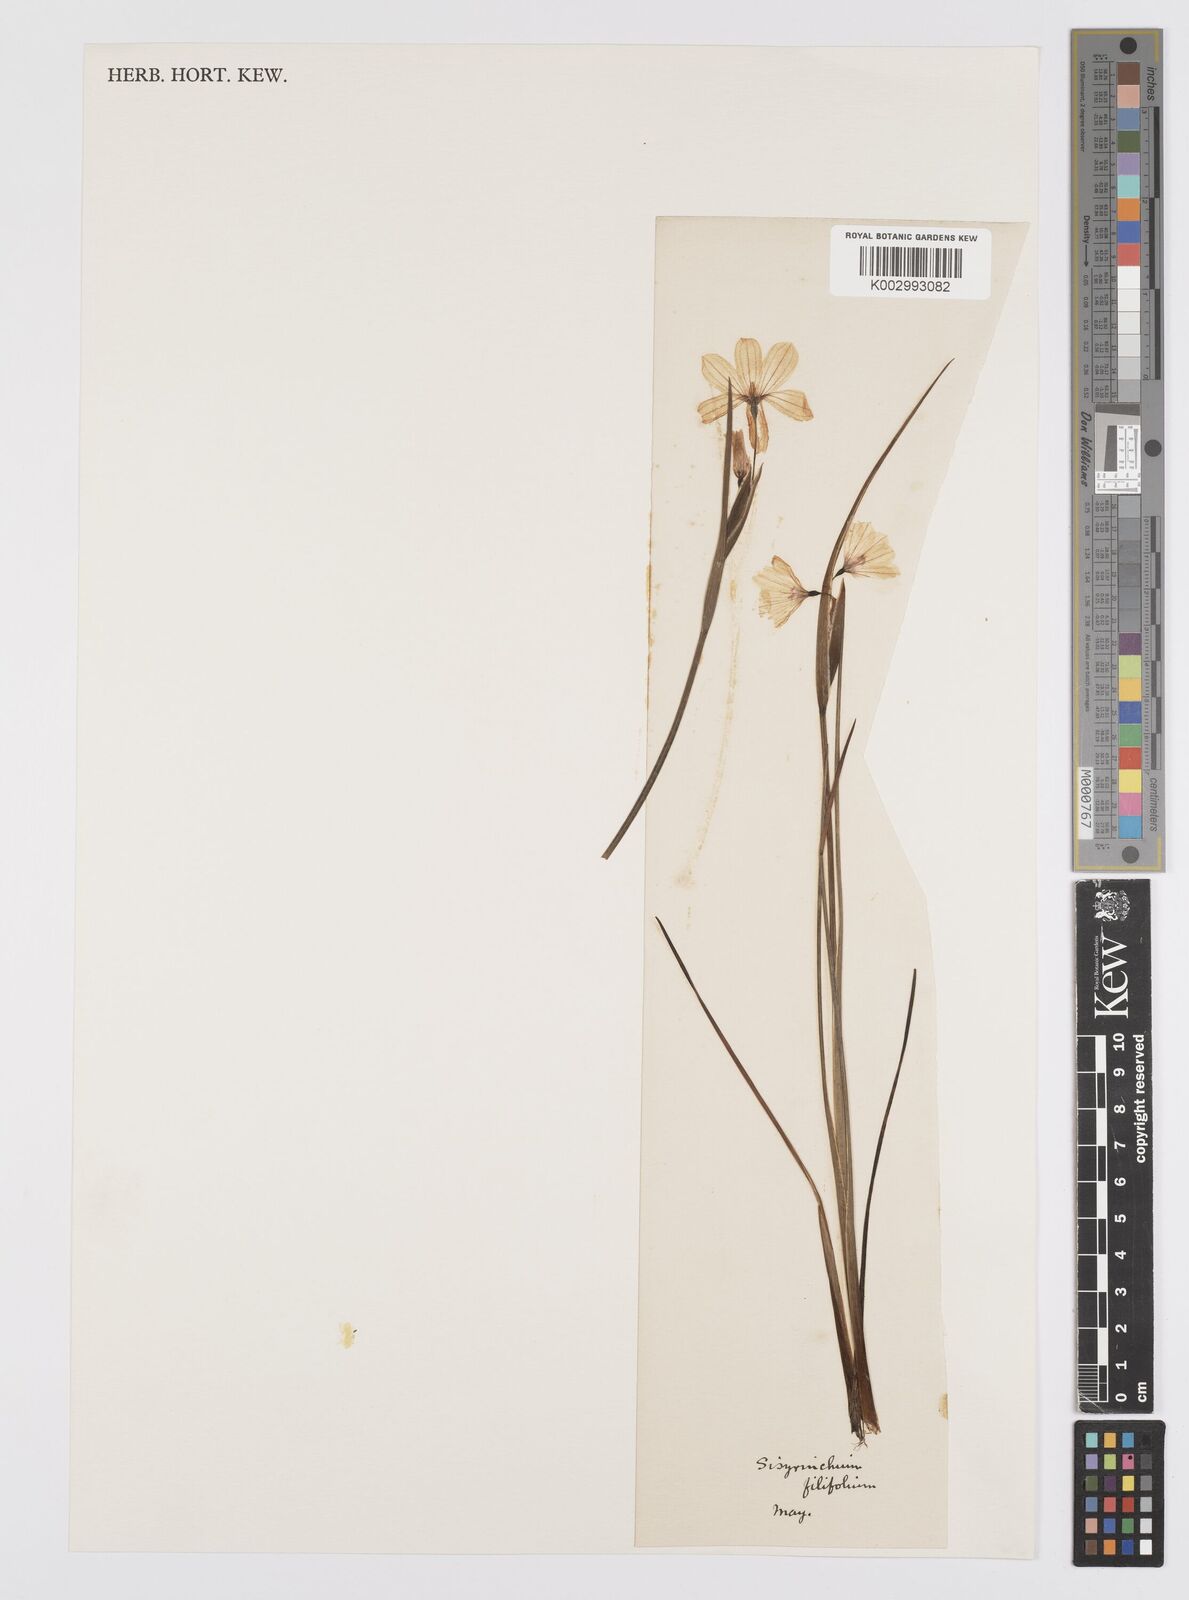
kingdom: Plantae
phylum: Tracheophyta
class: Liliopsida
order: Asparagales
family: Iridaceae
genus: Olsynium
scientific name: Olsynium filifolium
